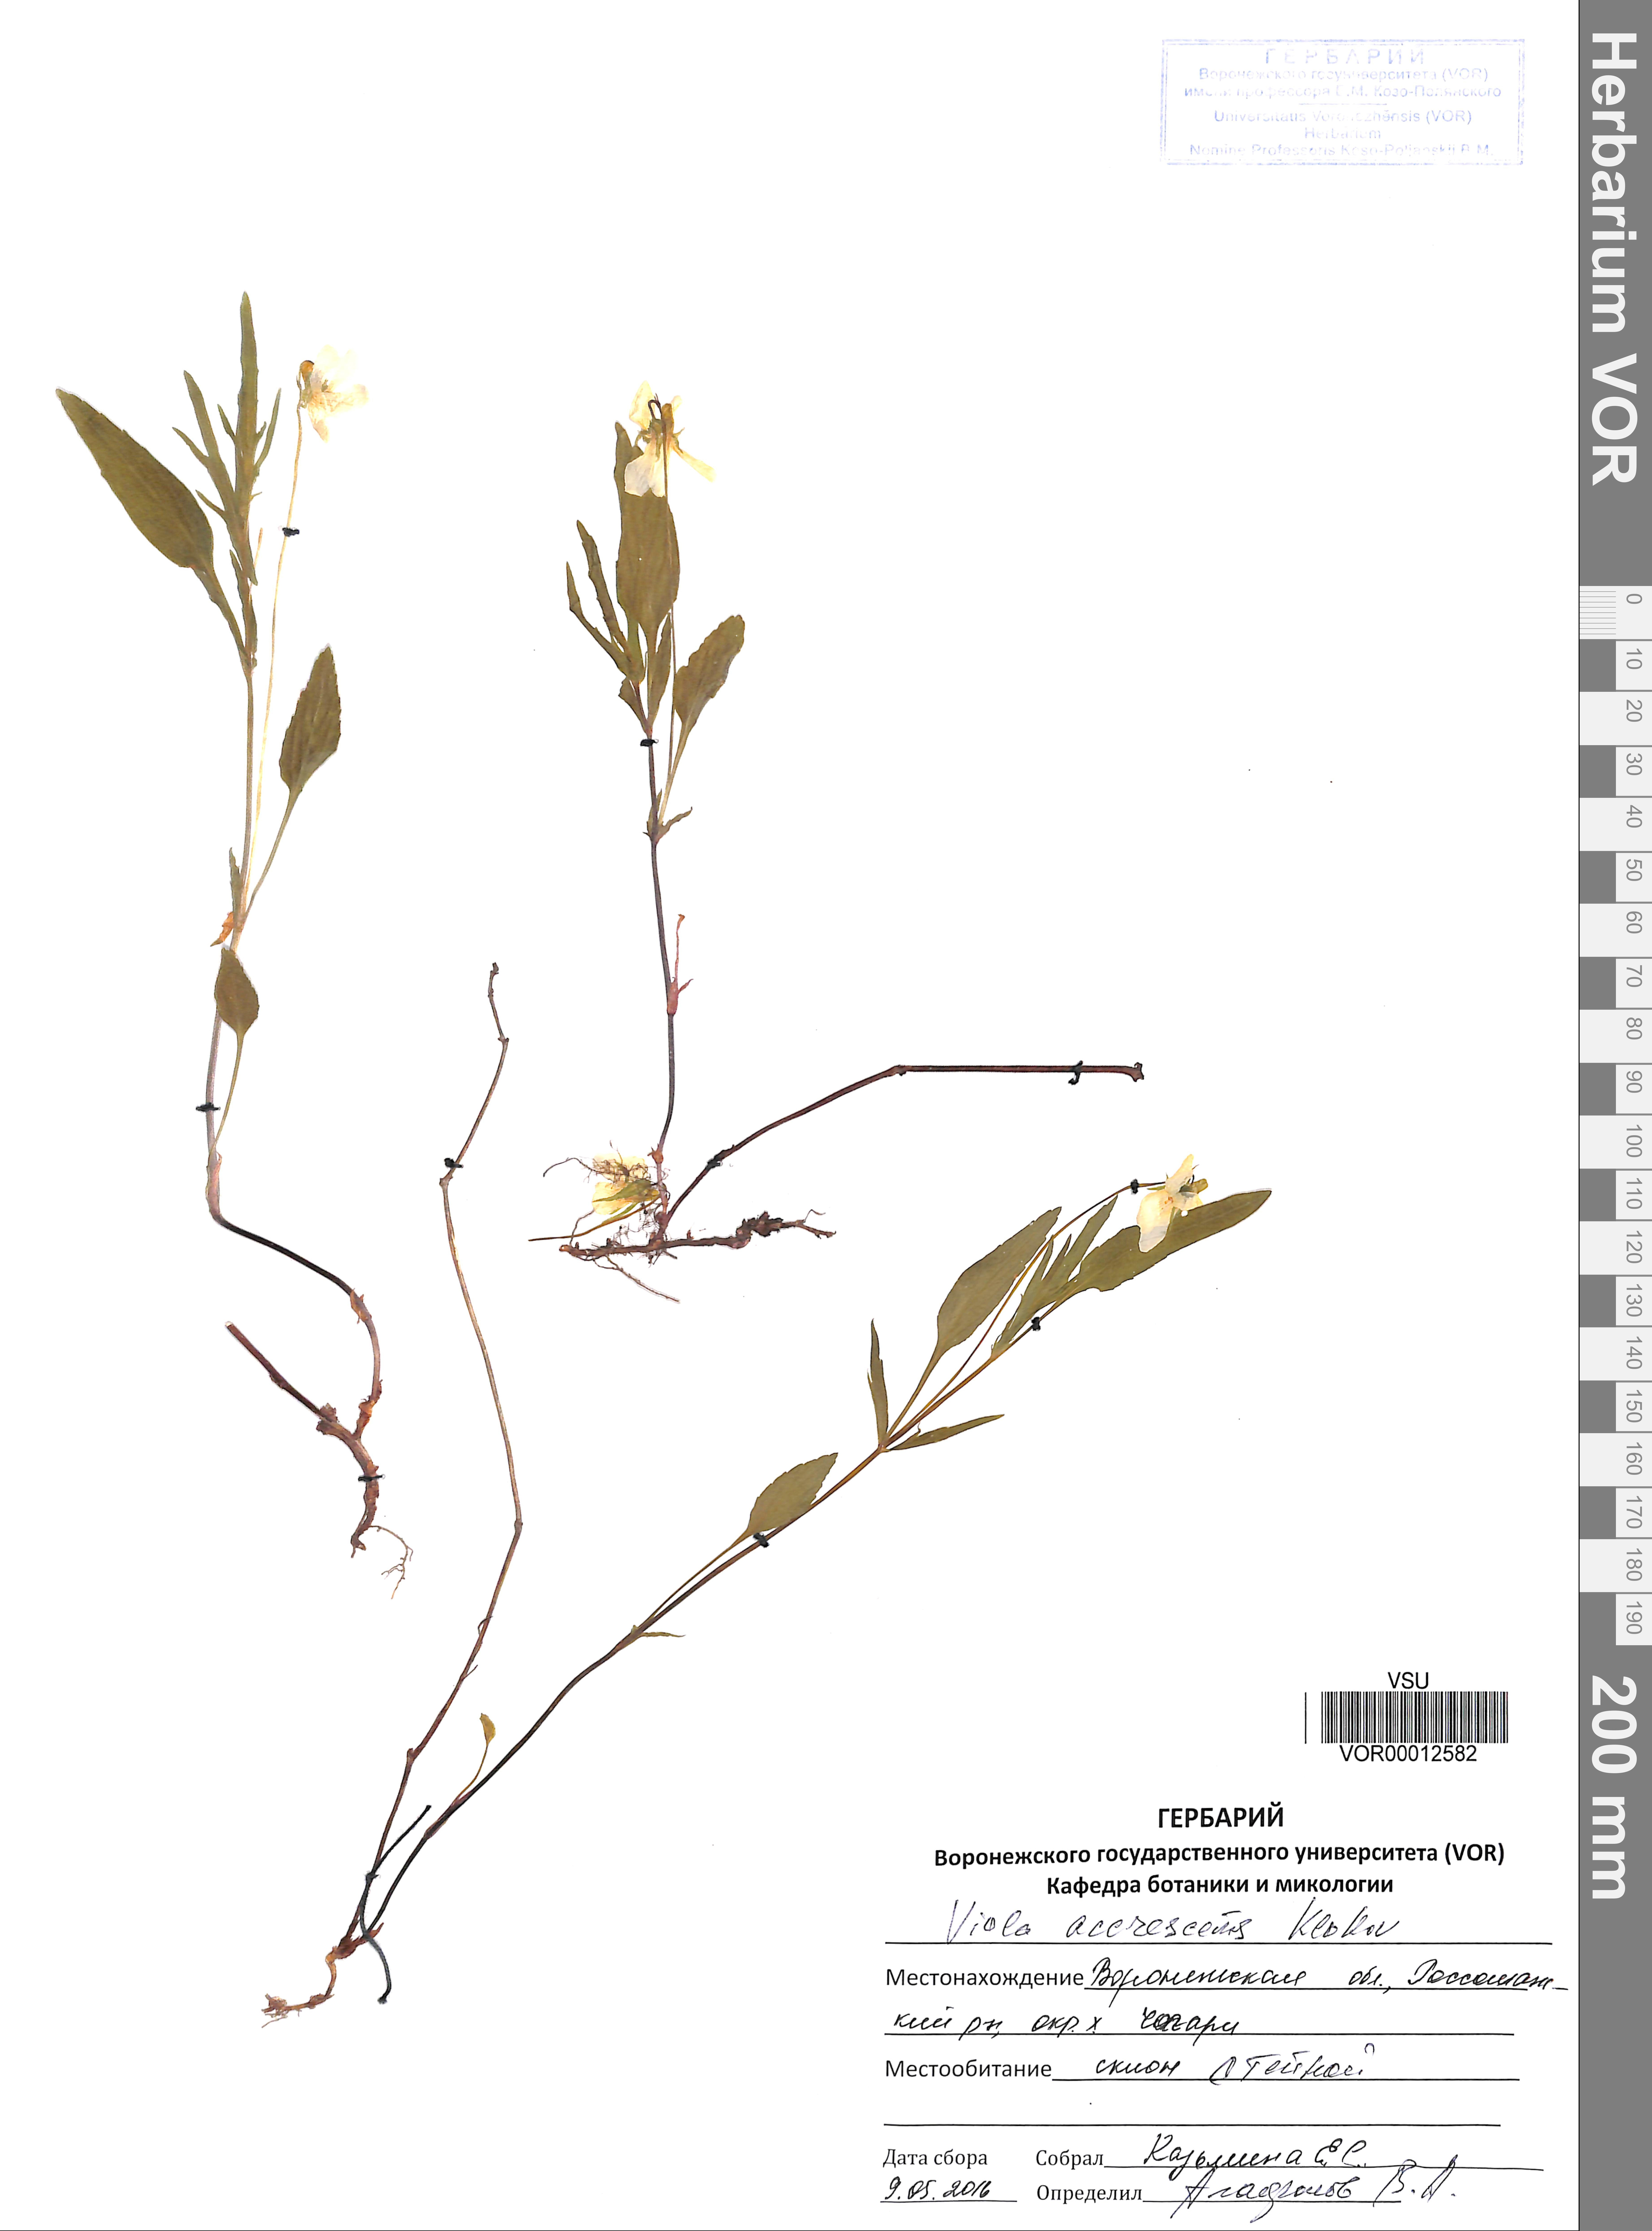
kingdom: Plantae
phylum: Tracheophyta
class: Magnoliopsida
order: Malpighiales
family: Violaceae
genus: Viola
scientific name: Viola pumila
